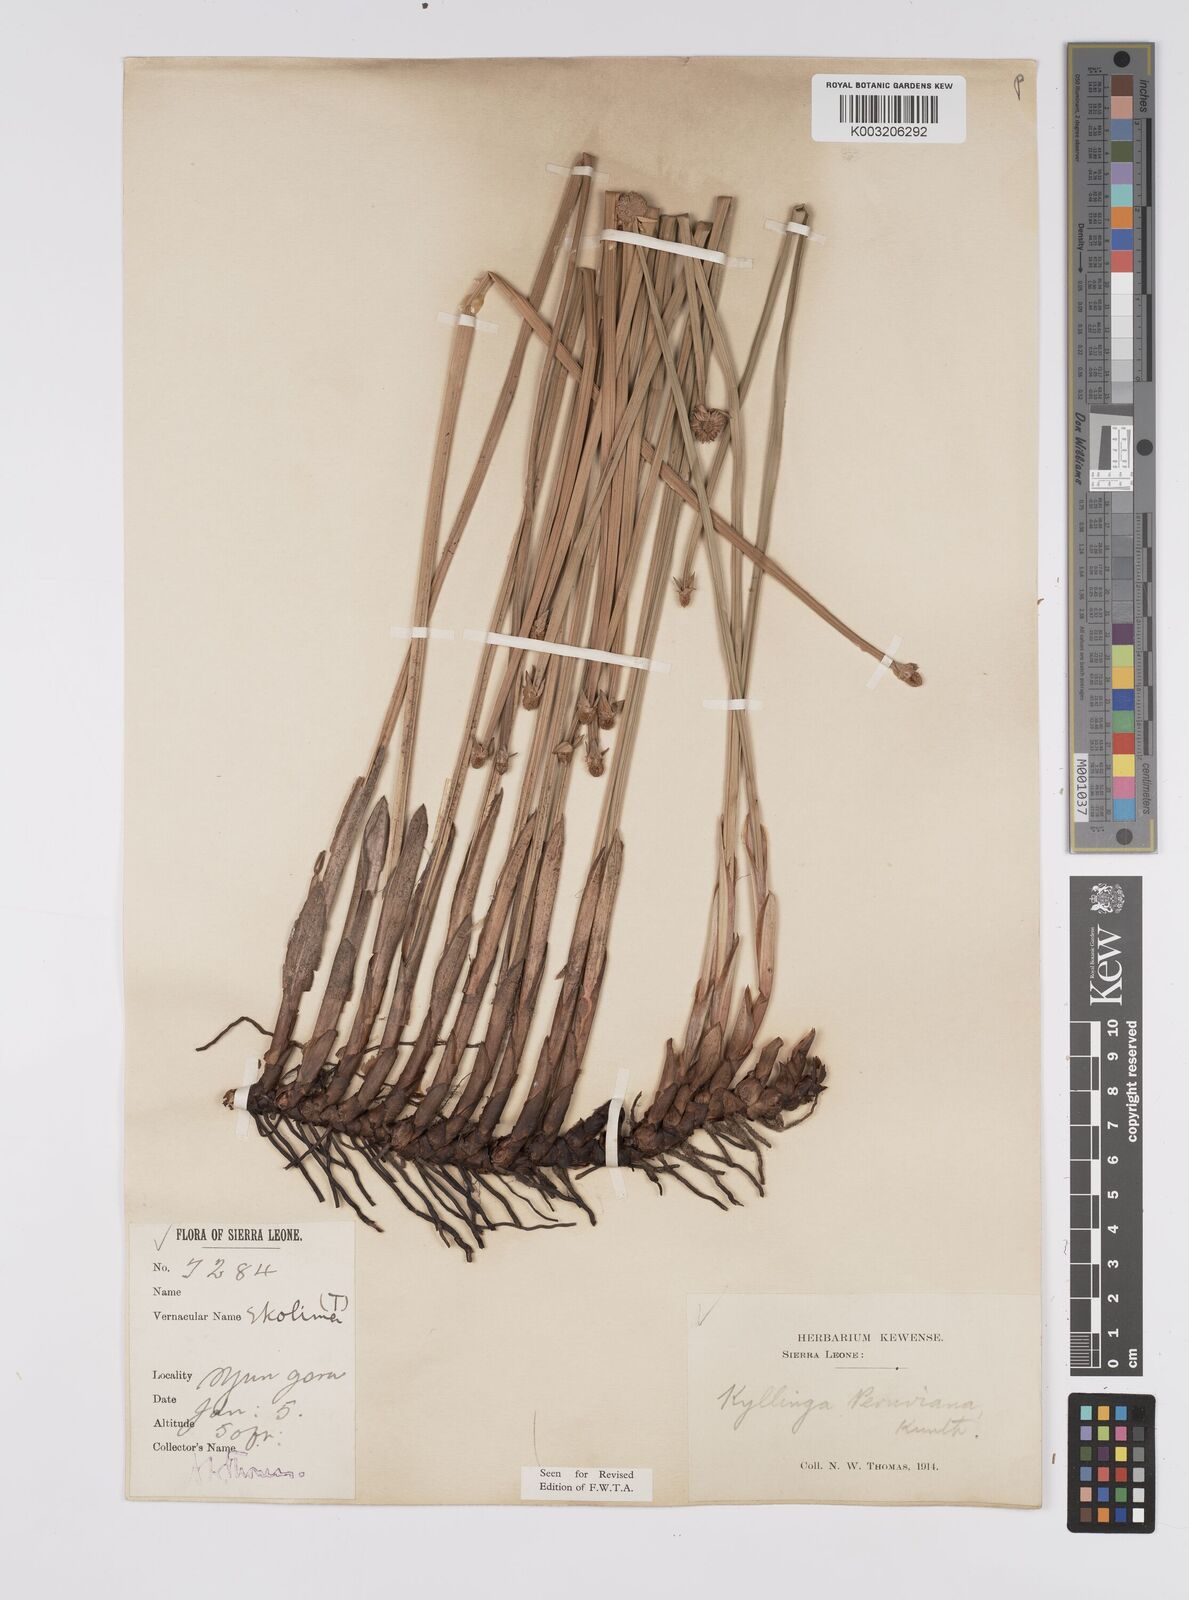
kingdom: Plantae
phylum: Tracheophyta
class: Liliopsida
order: Poales
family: Cyperaceae
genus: Cyperus
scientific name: Cyperus obtusatus
